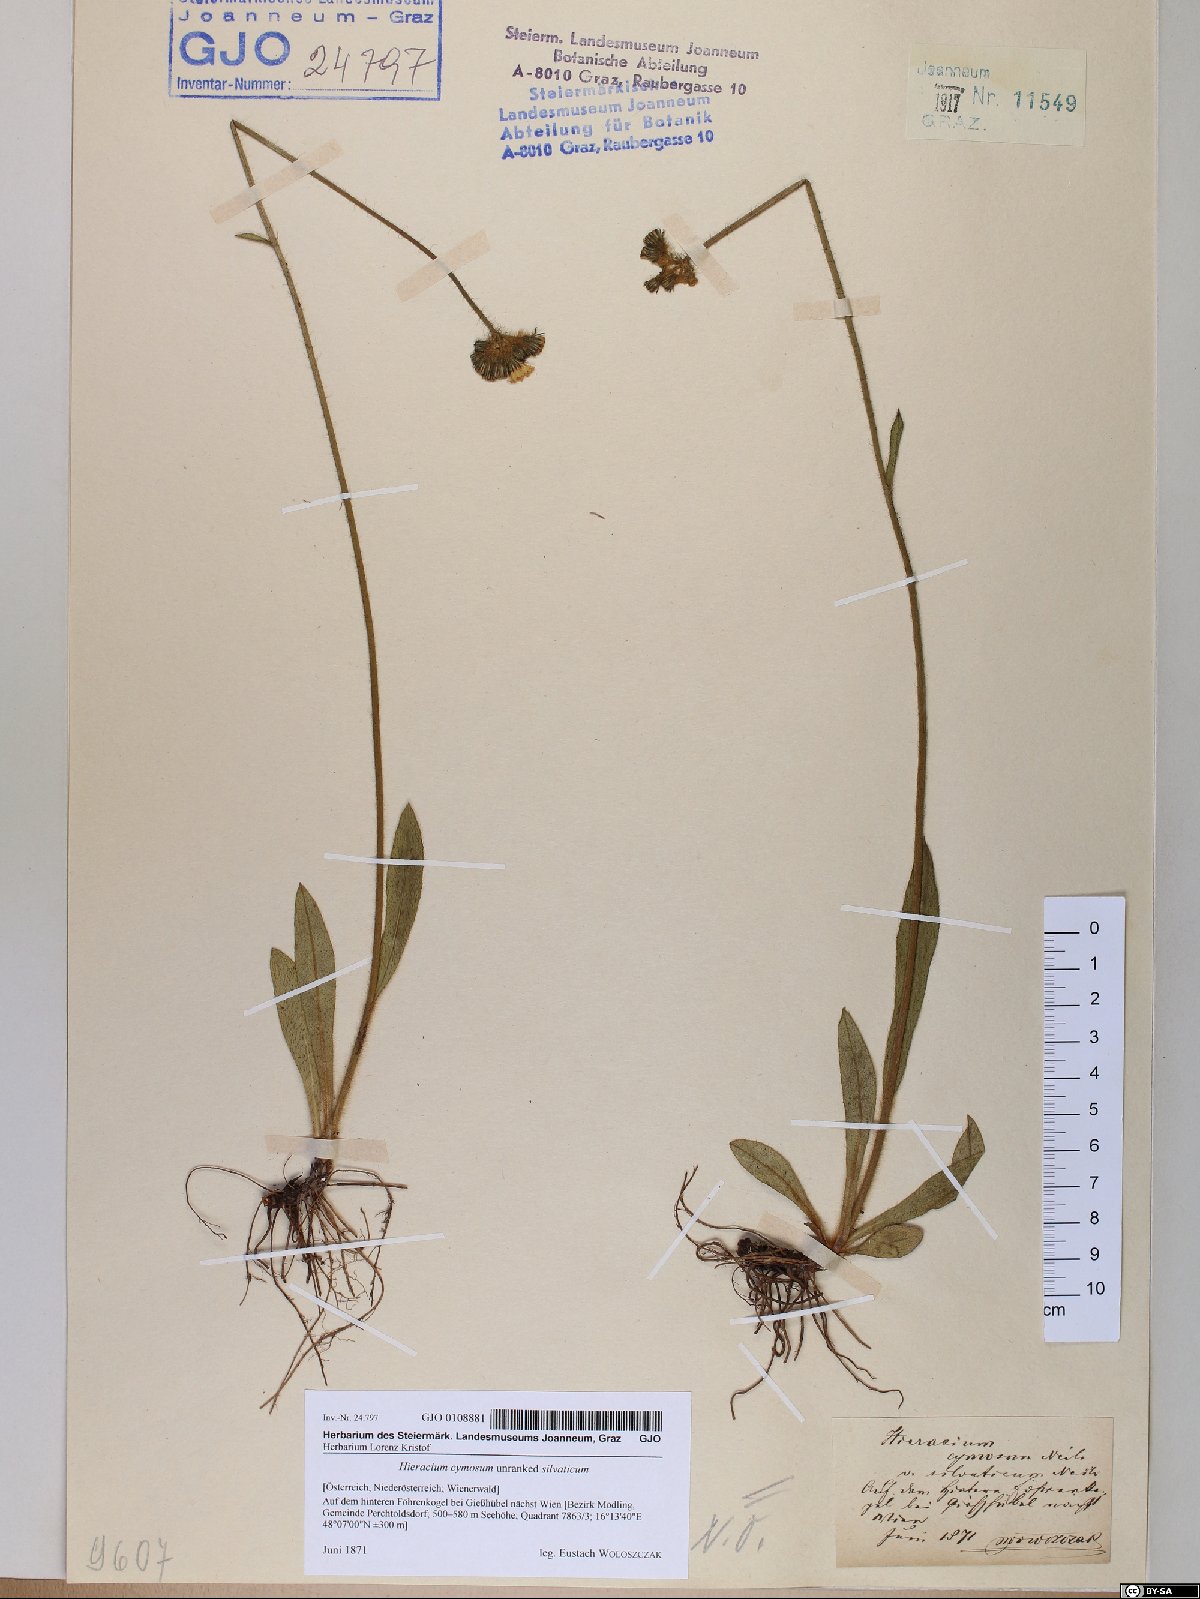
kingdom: Plantae
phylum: Tracheophyta
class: Magnoliopsida
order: Asterales
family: Asteraceae
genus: Pilosella
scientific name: Pilosella cymosa
